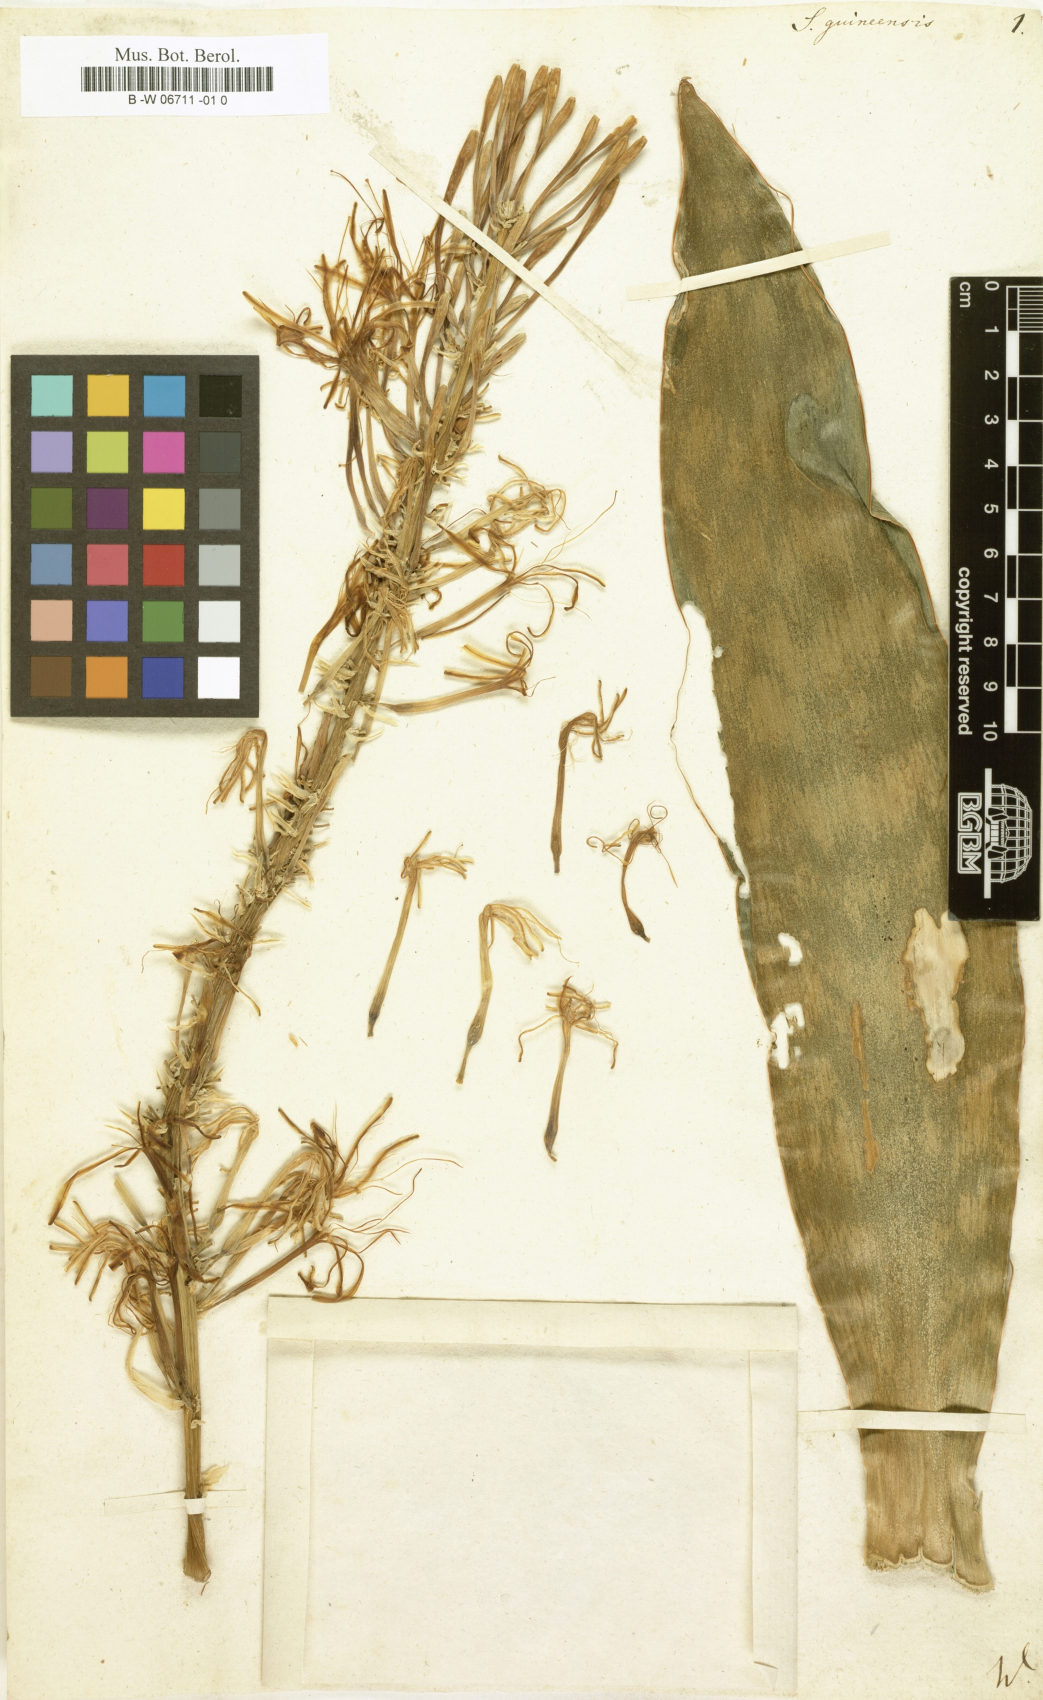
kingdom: Plantae
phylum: Tracheophyta
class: Liliopsida
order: Asparagales
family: Asparagaceae
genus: Dracaena
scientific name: Dracaena hyacinthoides
